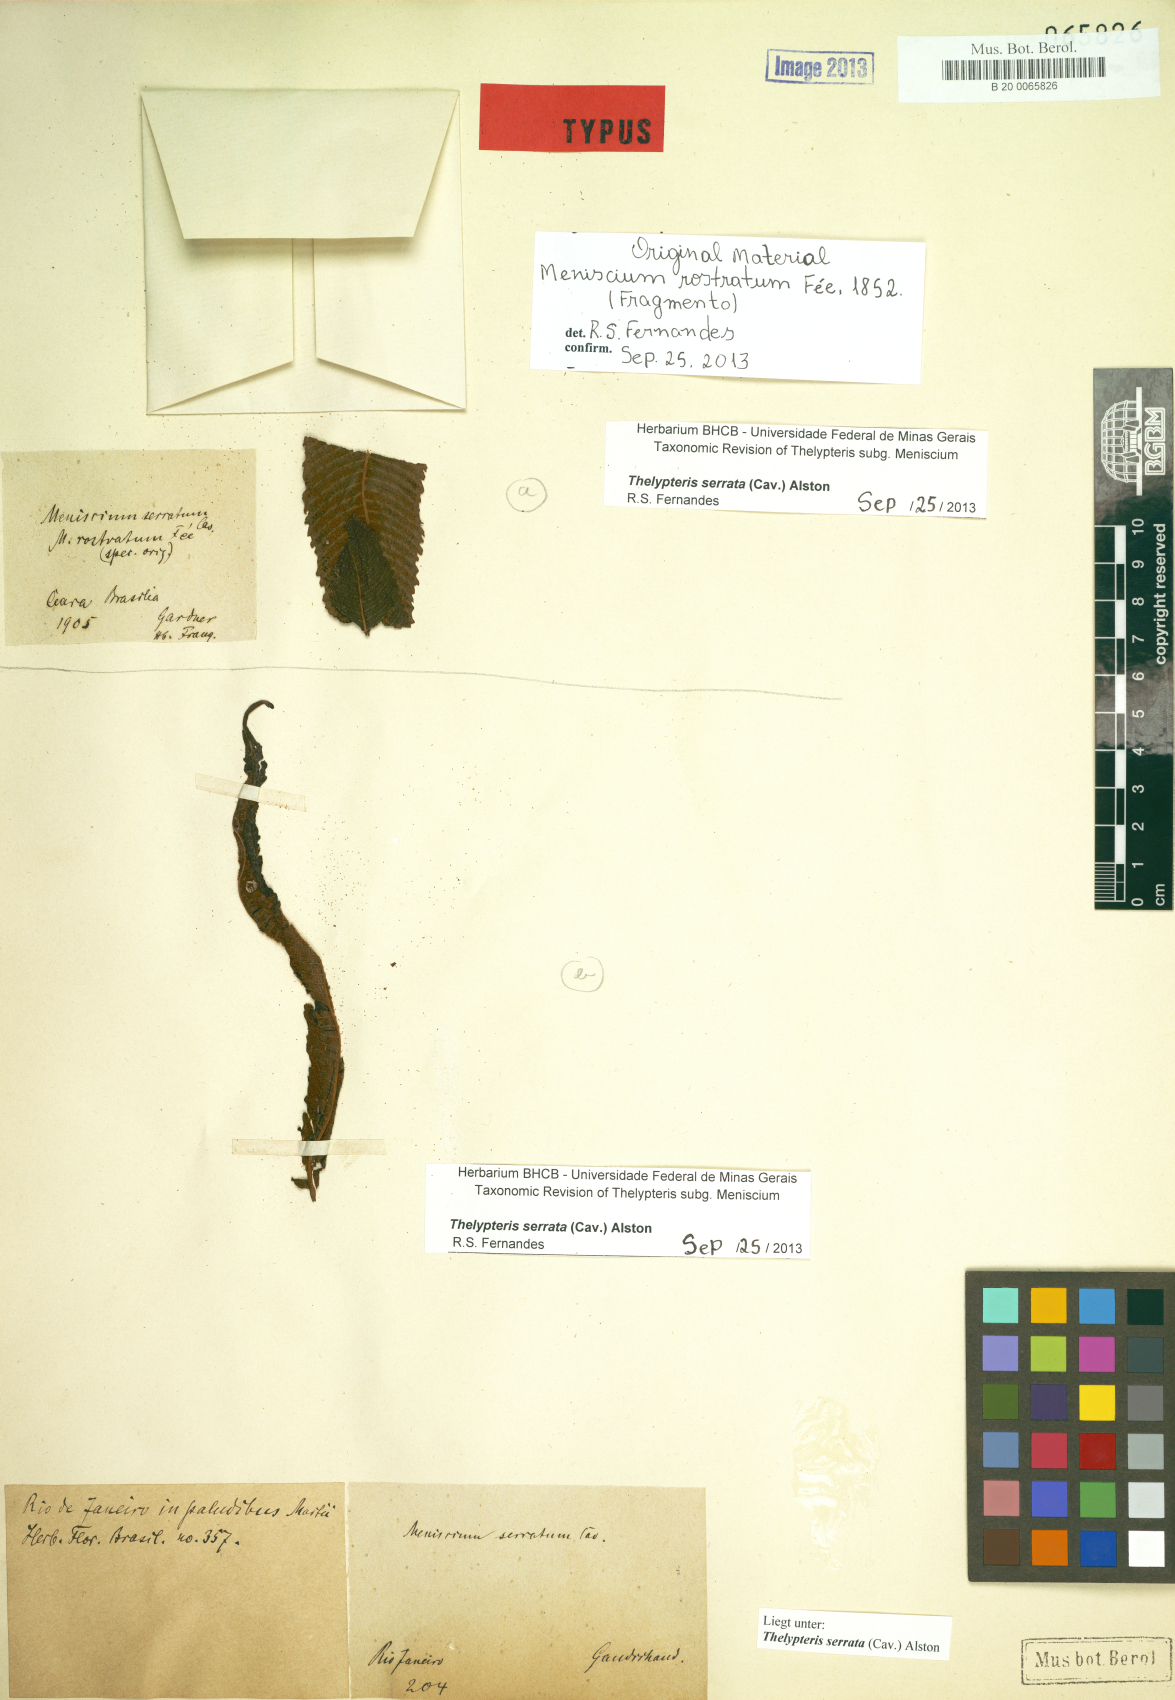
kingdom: Plantae
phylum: Tracheophyta
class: Polypodiopsida
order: Polypodiales
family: Thelypteridaceae
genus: Meniscium
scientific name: Meniscium serratum
